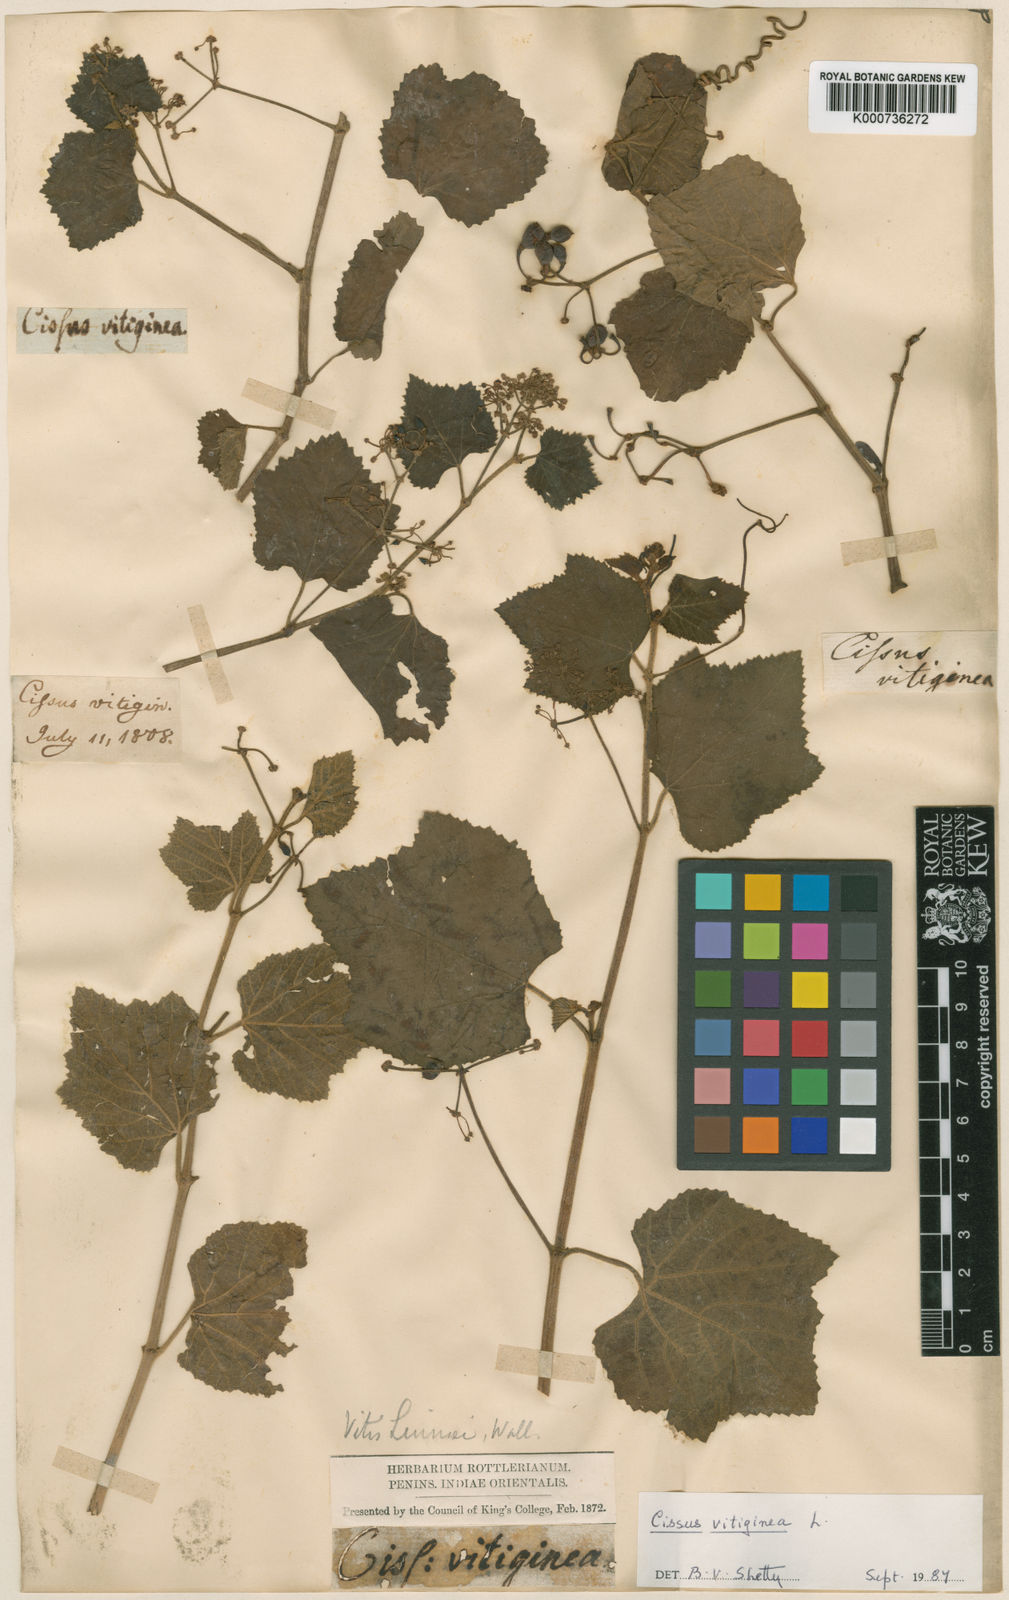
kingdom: Plantae
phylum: Tracheophyta
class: Magnoliopsida
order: Vitales
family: Vitaceae
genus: Cissus
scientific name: Cissus vitiginea
